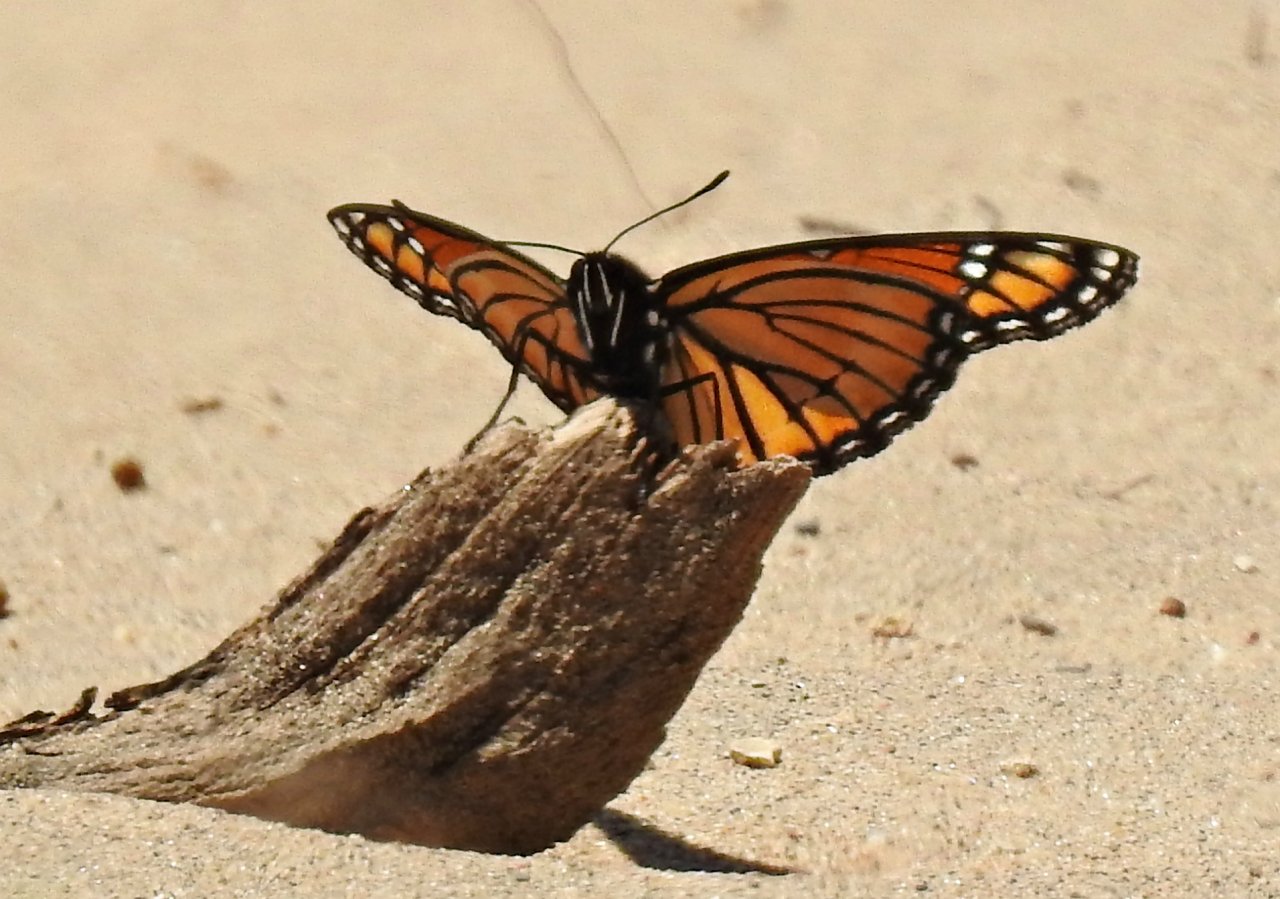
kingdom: Animalia
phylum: Arthropoda
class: Insecta
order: Lepidoptera
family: Nymphalidae
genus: Limenitis
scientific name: Limenitis archippus
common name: Viceroy
